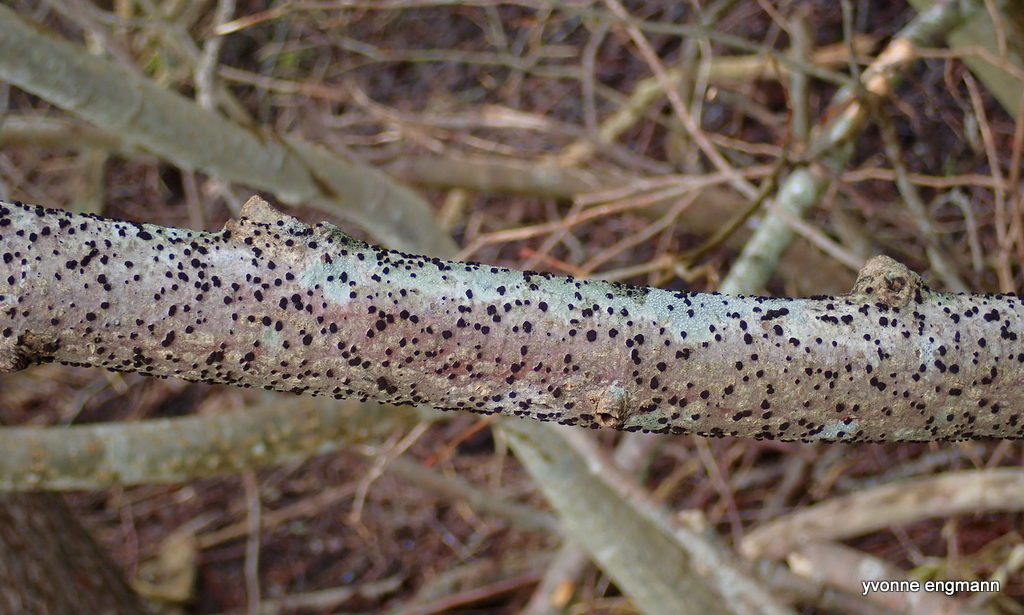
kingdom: Fungi
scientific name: Fungi
